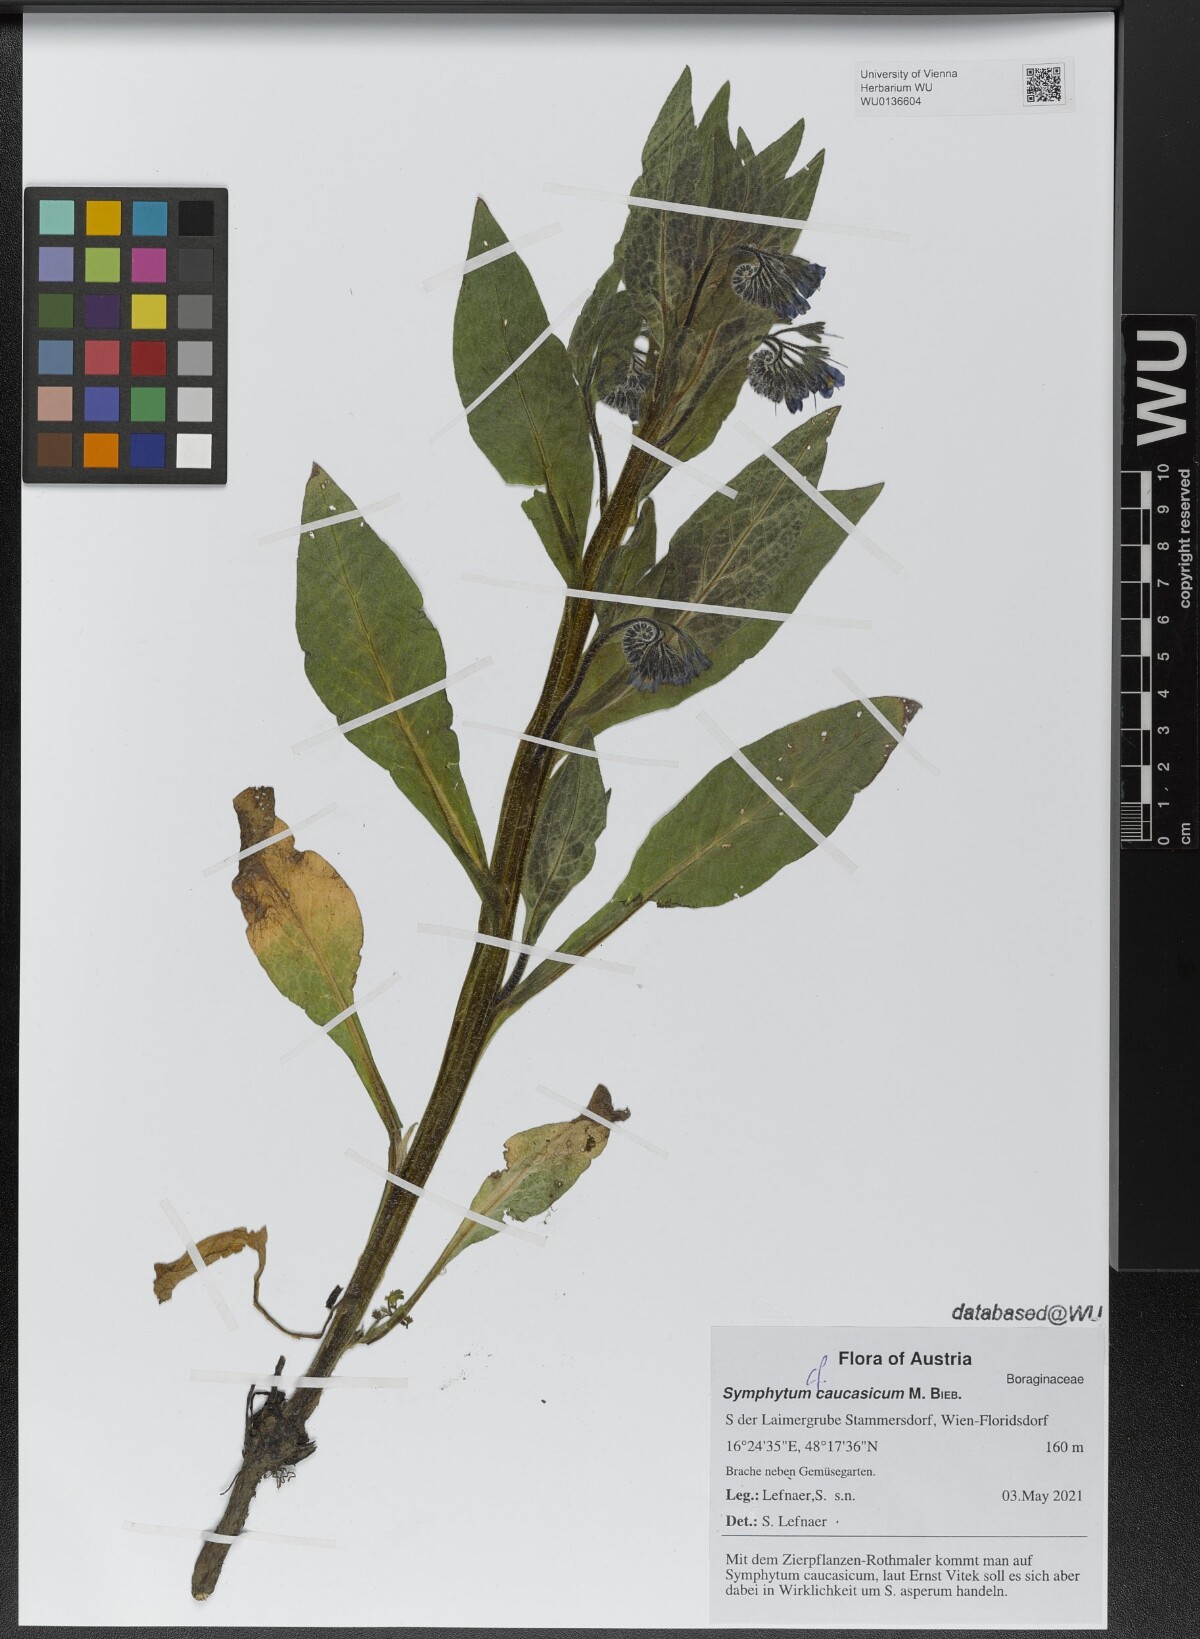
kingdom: Plantae
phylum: Tracheophyta
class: Magnoliopsida
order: Boraginales
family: Boraginaceae
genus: Symphytum
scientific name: Symphytum caucasicum
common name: Caucasian comfrey
